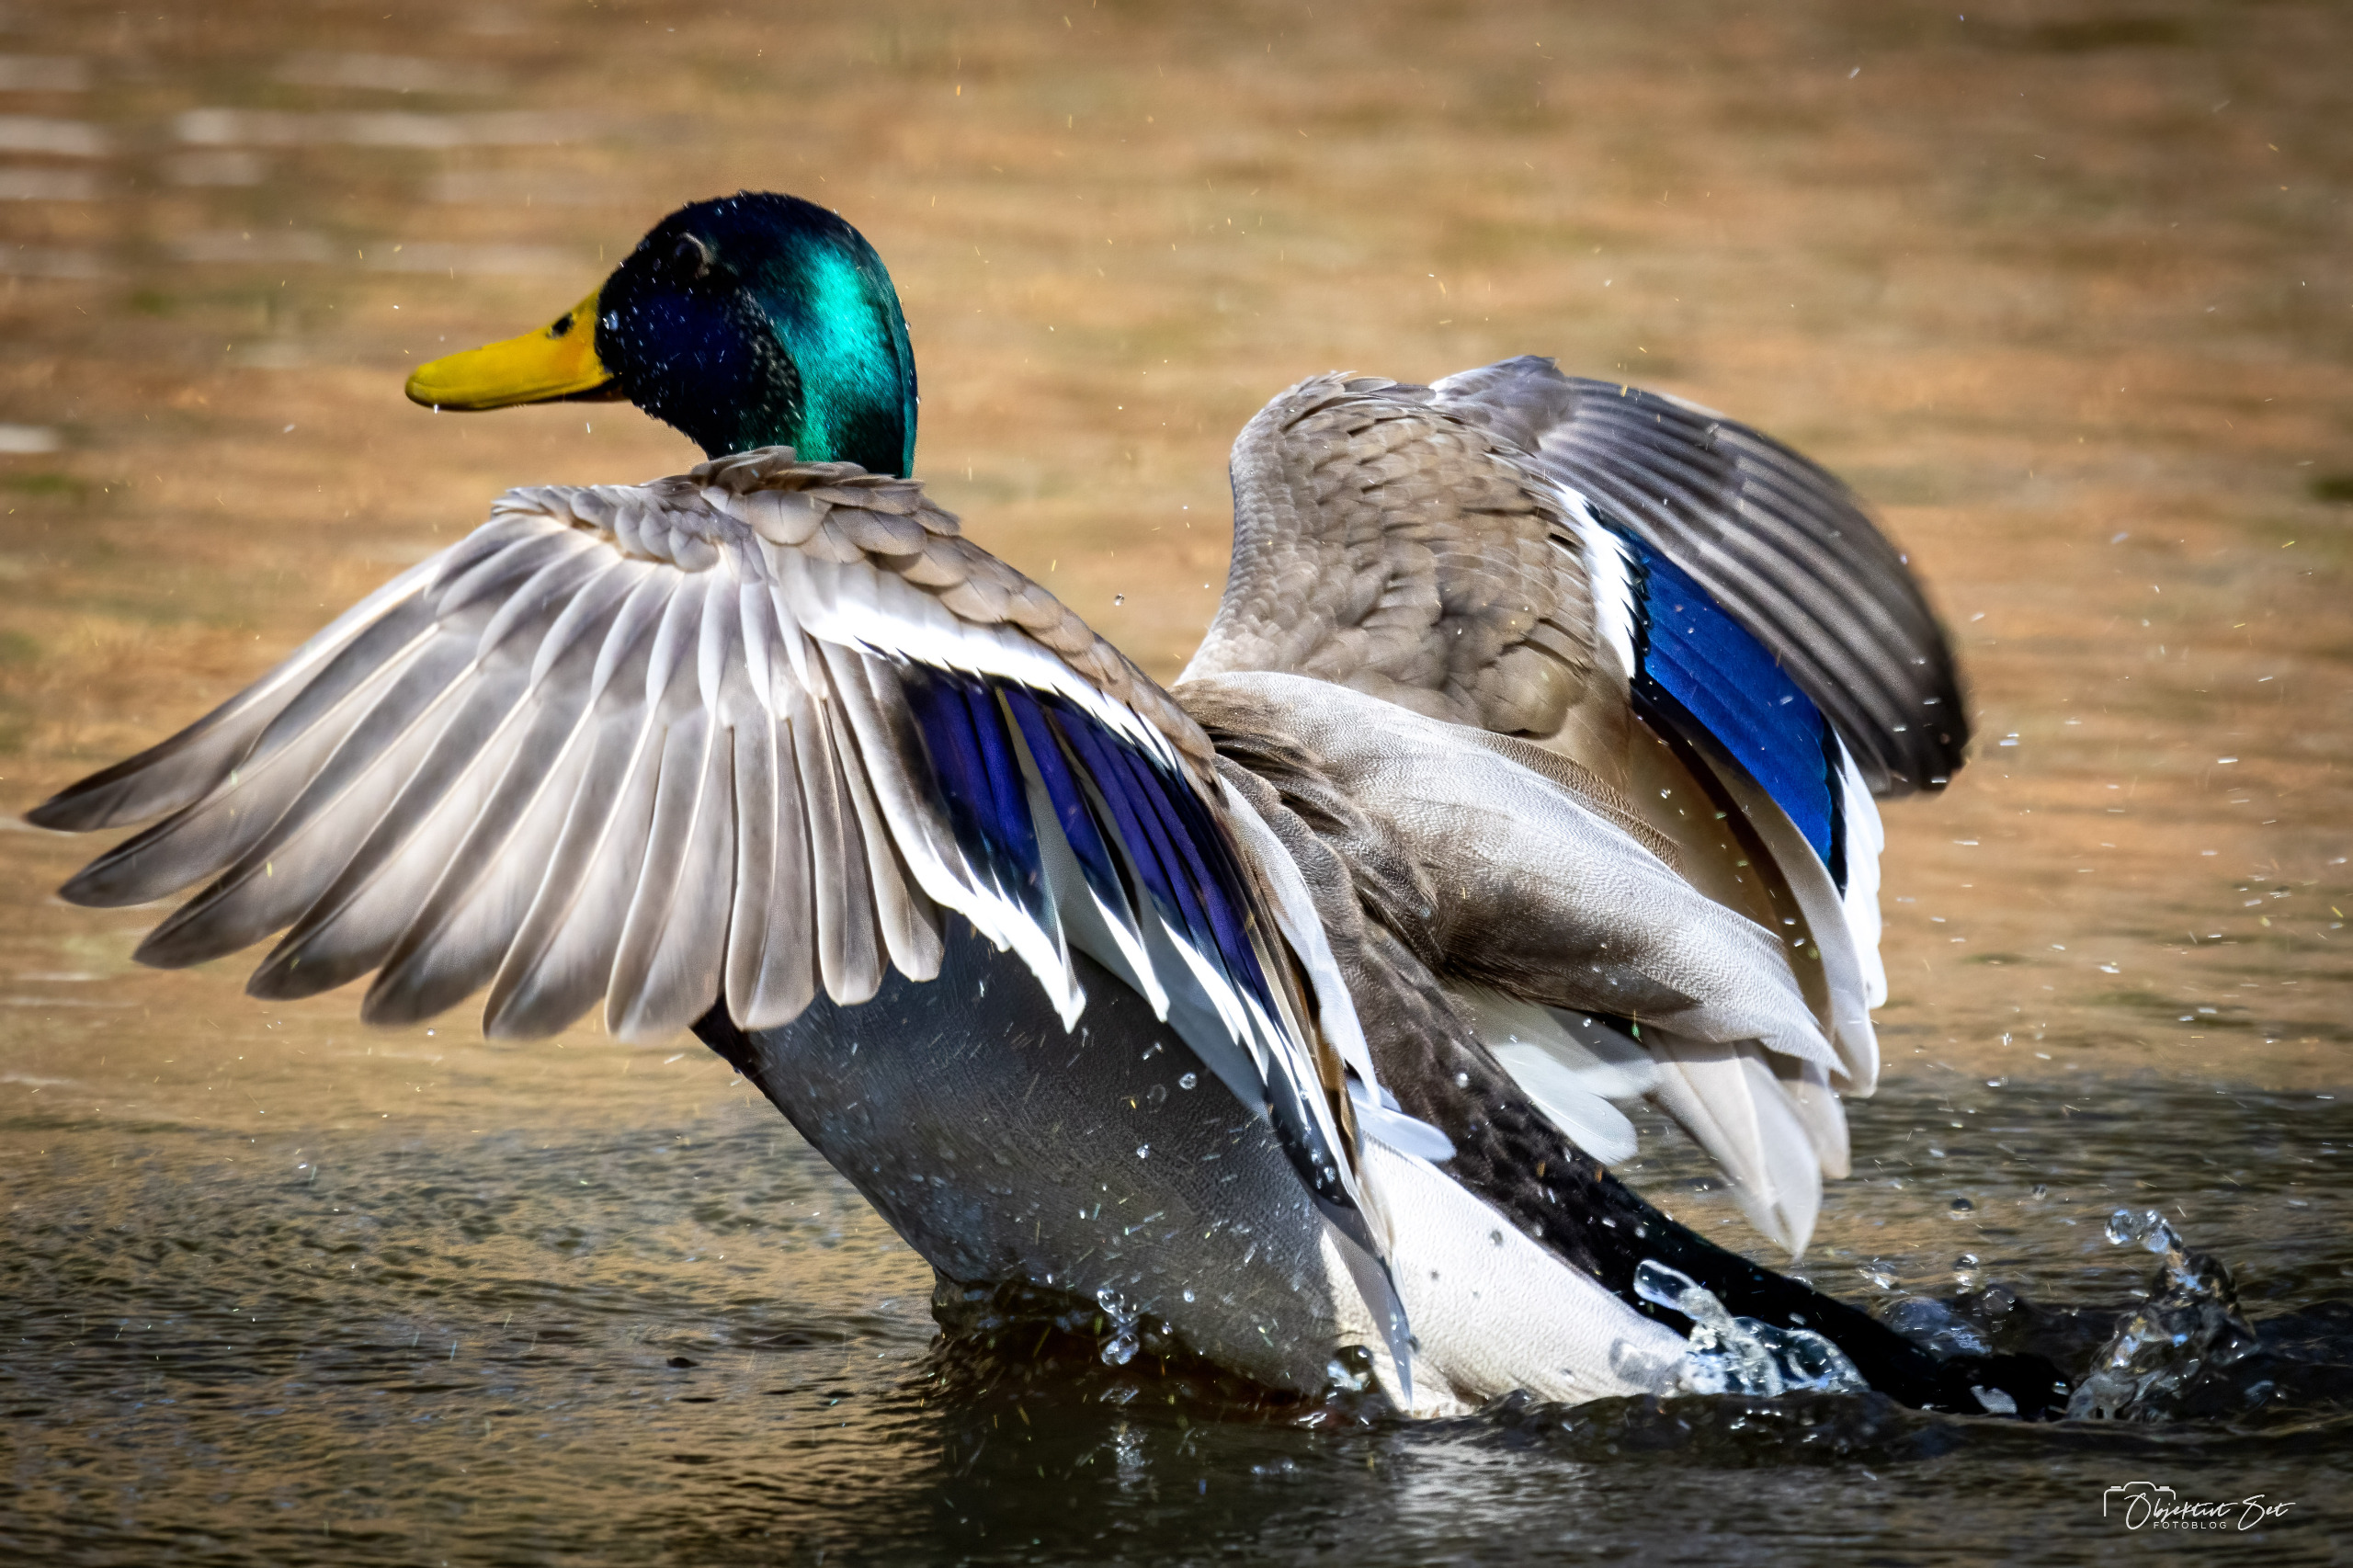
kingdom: Animalia
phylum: Chordata
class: Aves
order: Anseriformes
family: Anatidae
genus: Anas
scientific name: Anas platyrhynchos
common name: Gråand
